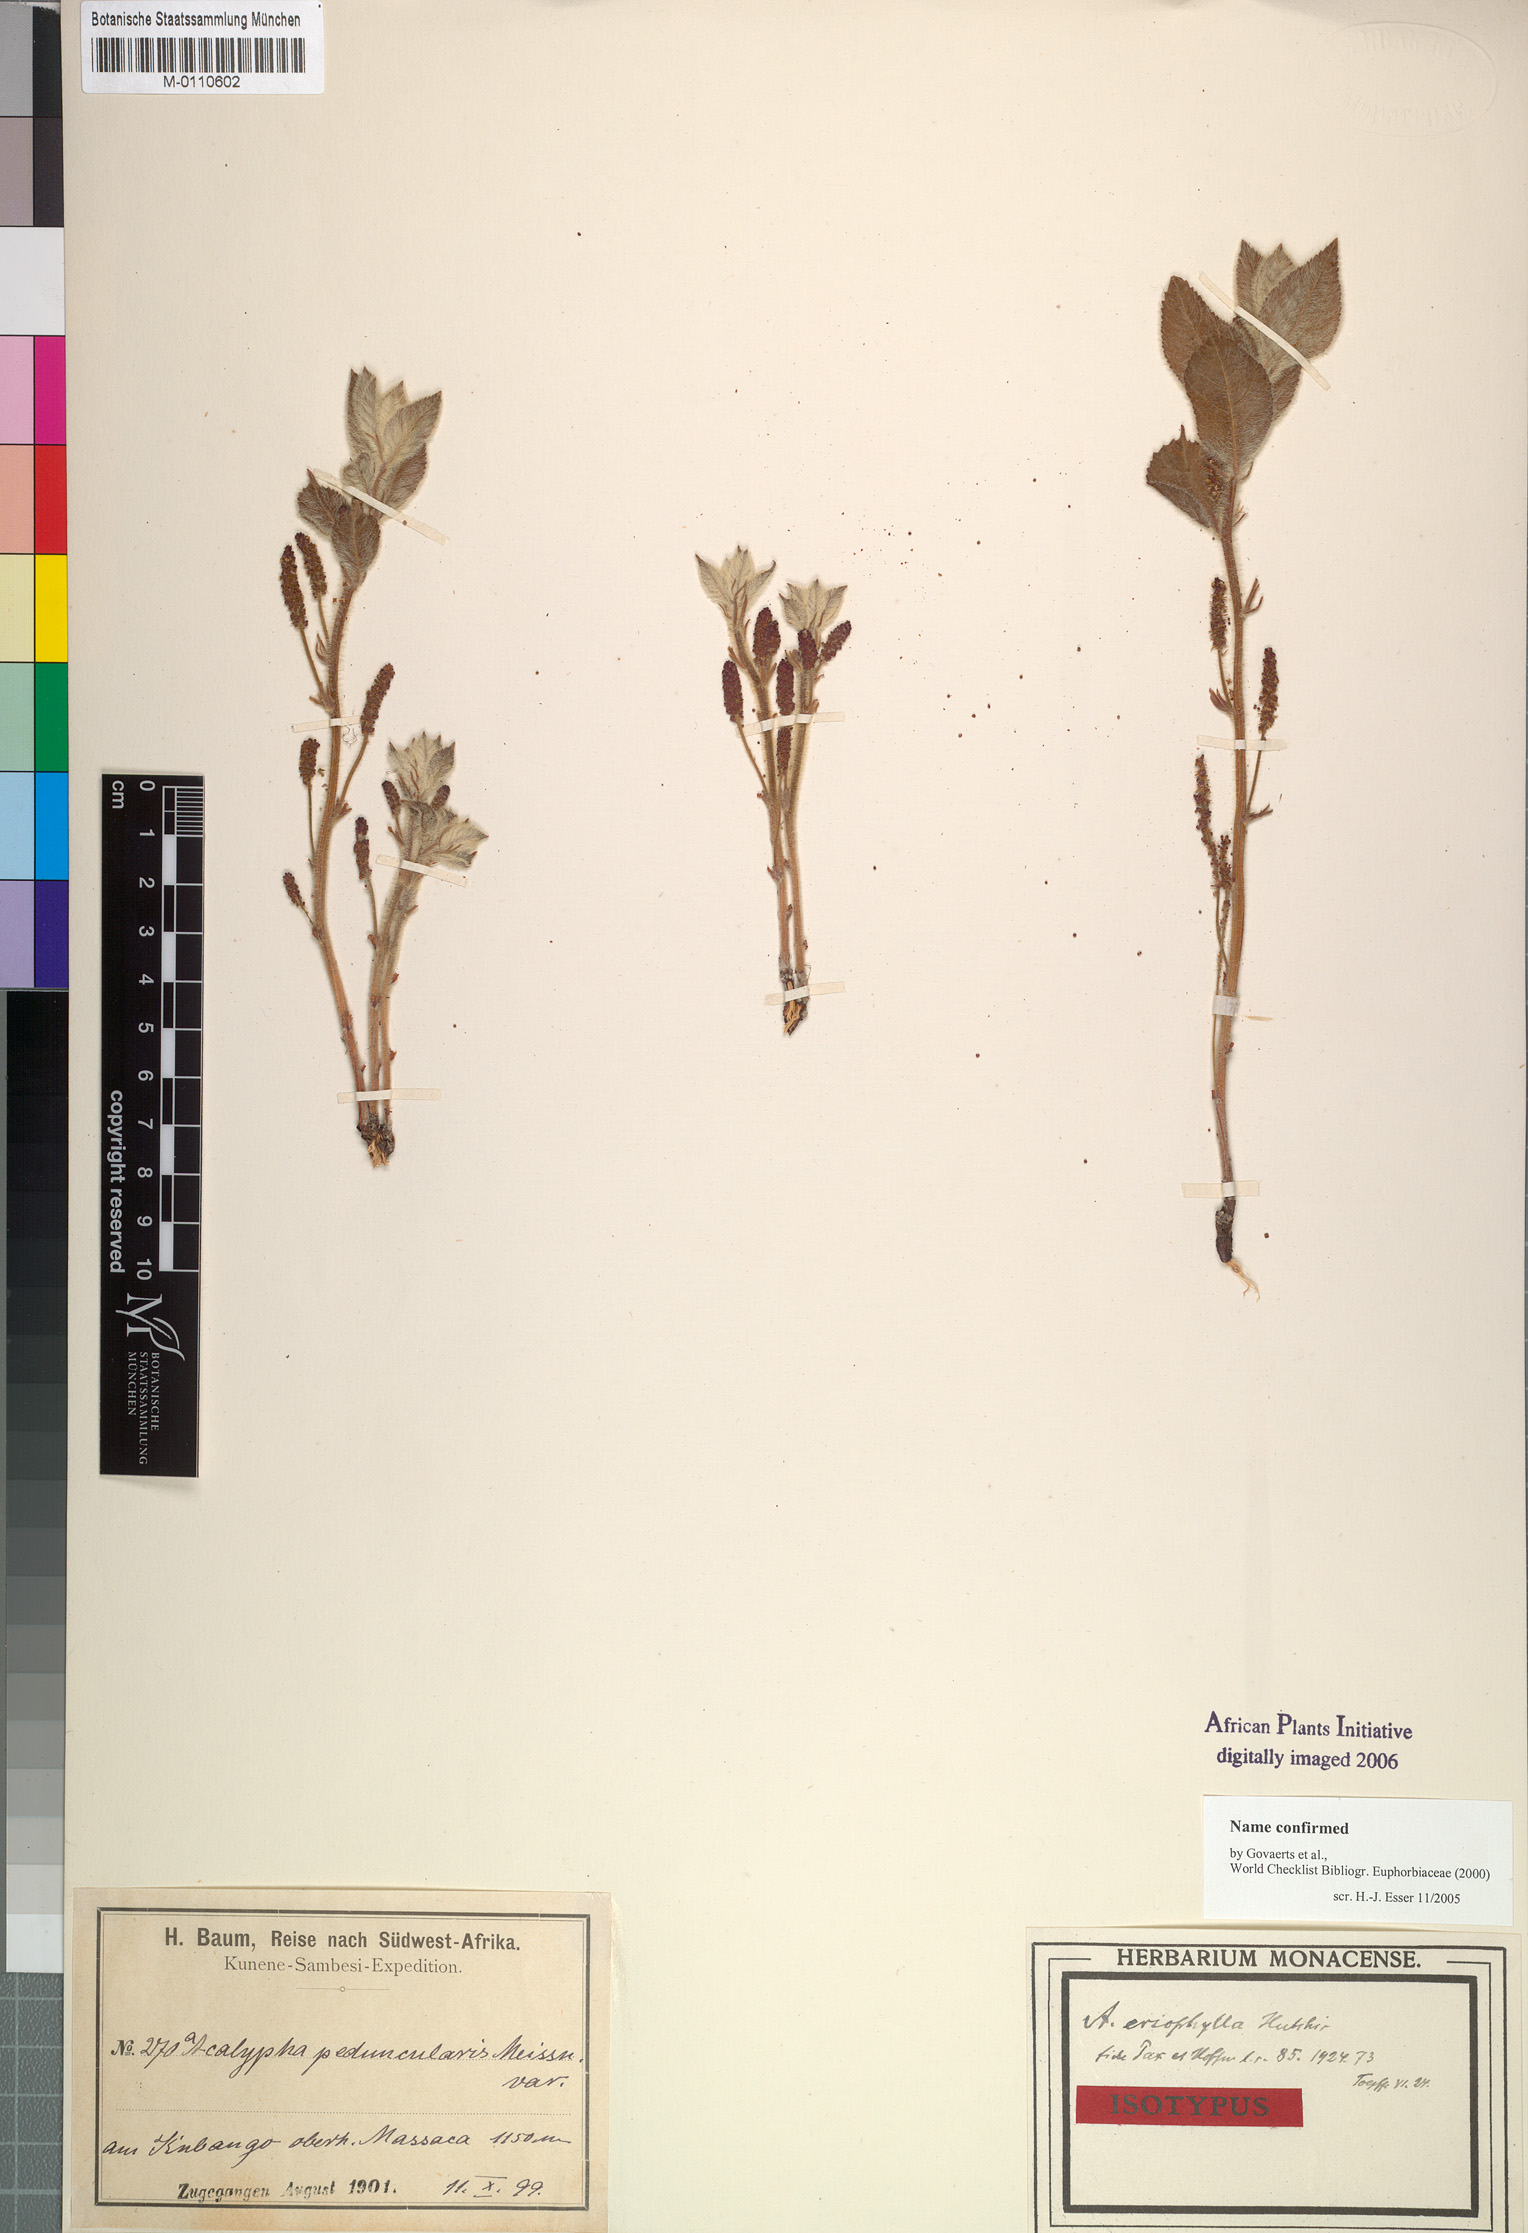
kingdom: Plantae
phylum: Tracheophyta
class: Magnoliopsida
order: Malpighiales
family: Euphorbiaceae
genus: Acalypha
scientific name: Acalypha eriophylla
